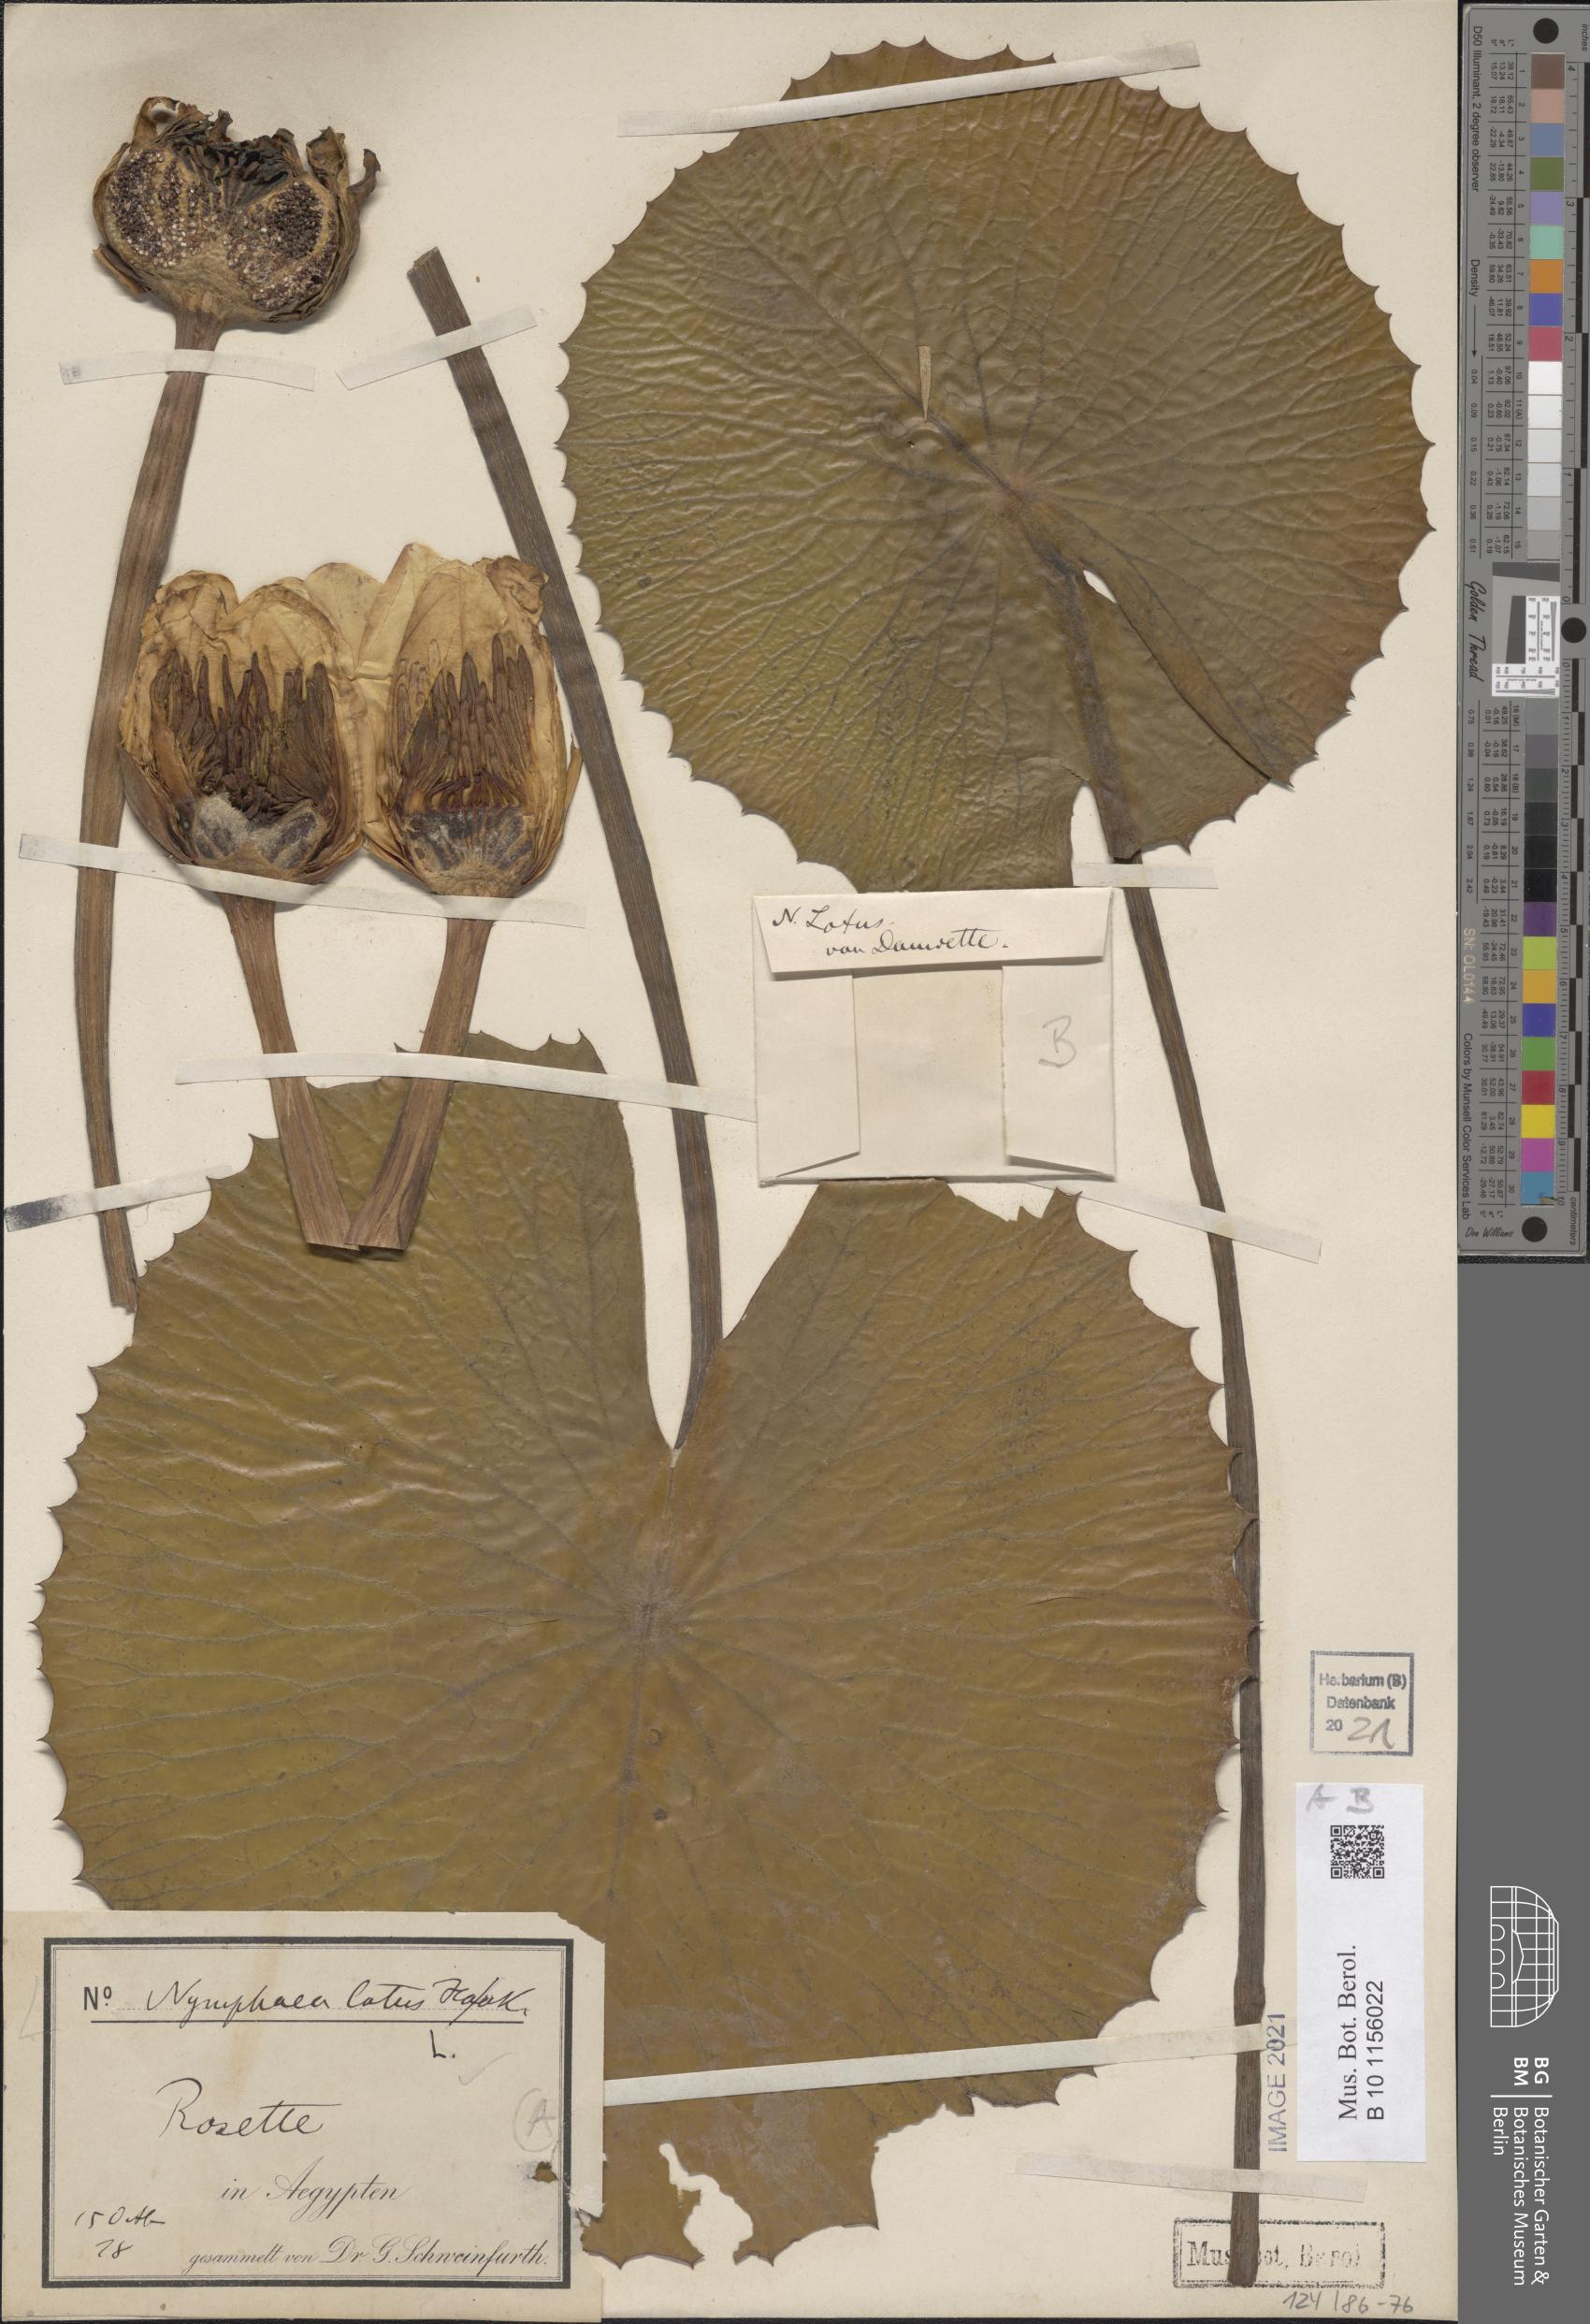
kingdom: Plantae
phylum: Tracheophyta
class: Magnoliopsida
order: Nymphaeales
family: Nymphaeaceae
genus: Nymphaea
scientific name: Nymphaea lotus
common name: White egyptian lotus
